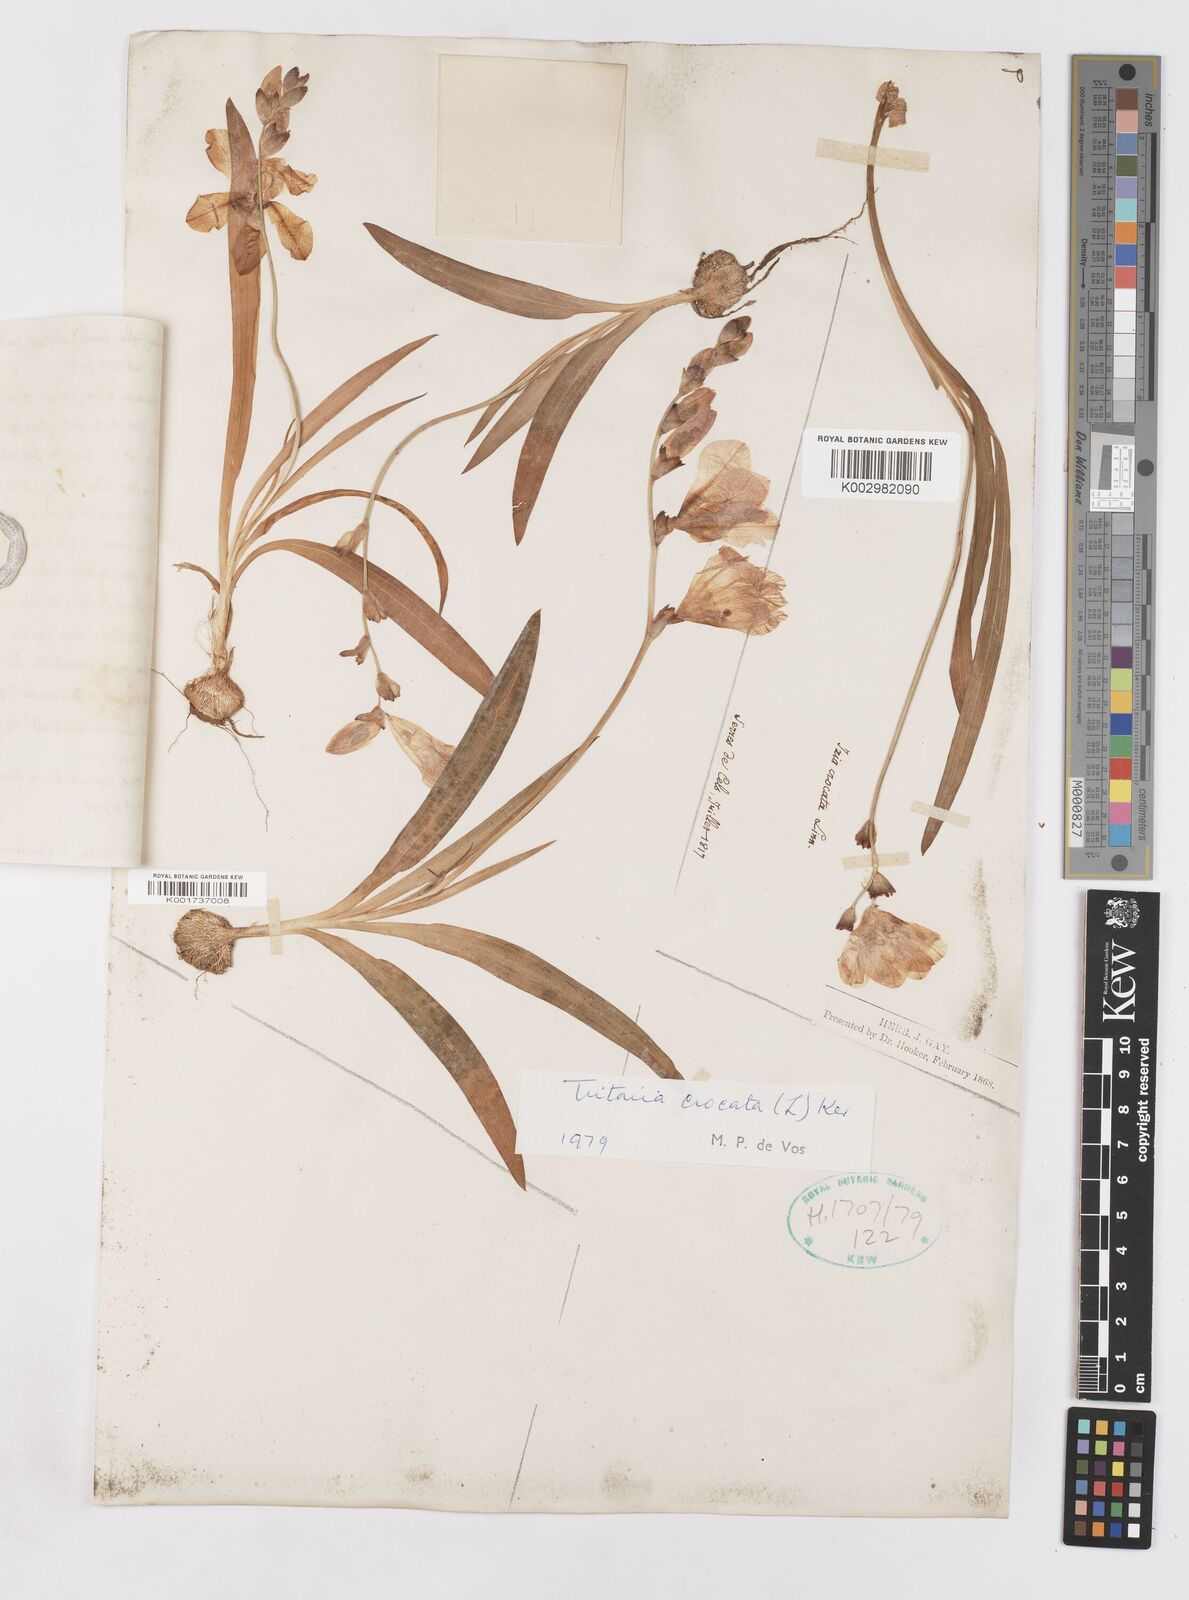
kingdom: Plantae
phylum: Tracheophyta
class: Liliopsida
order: Asparagales
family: Iridaceae
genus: Tritonia
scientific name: Tritonia crocata
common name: Flame-freesia
